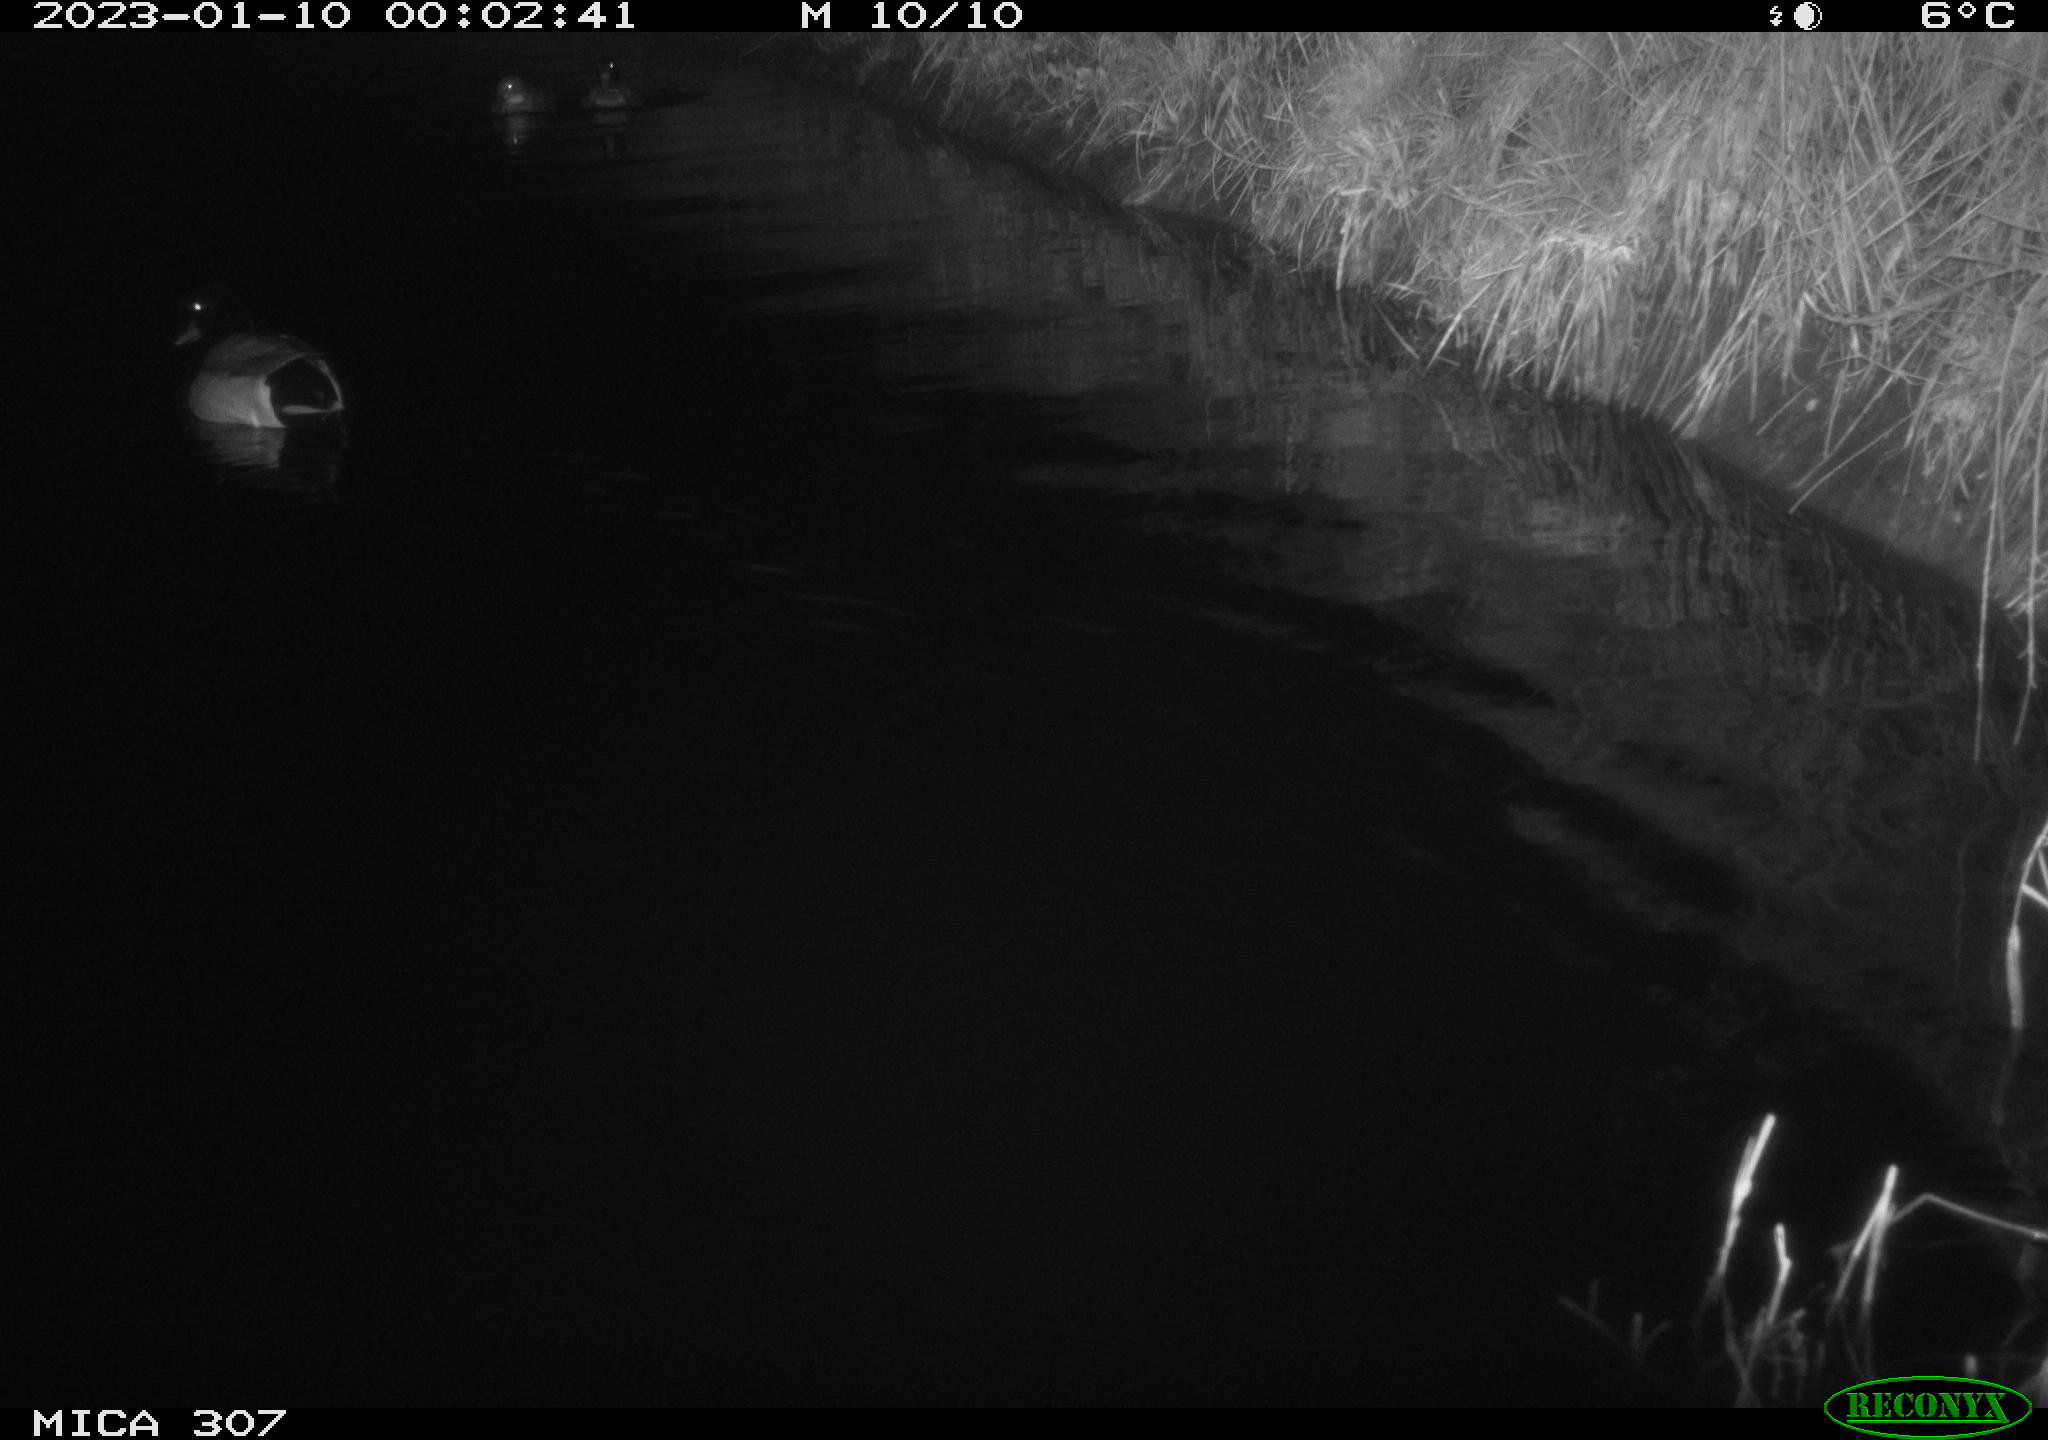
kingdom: Animalia
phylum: Chordata
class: Aves
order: Anseriformes
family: Anatidae
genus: Anas
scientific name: Anas
